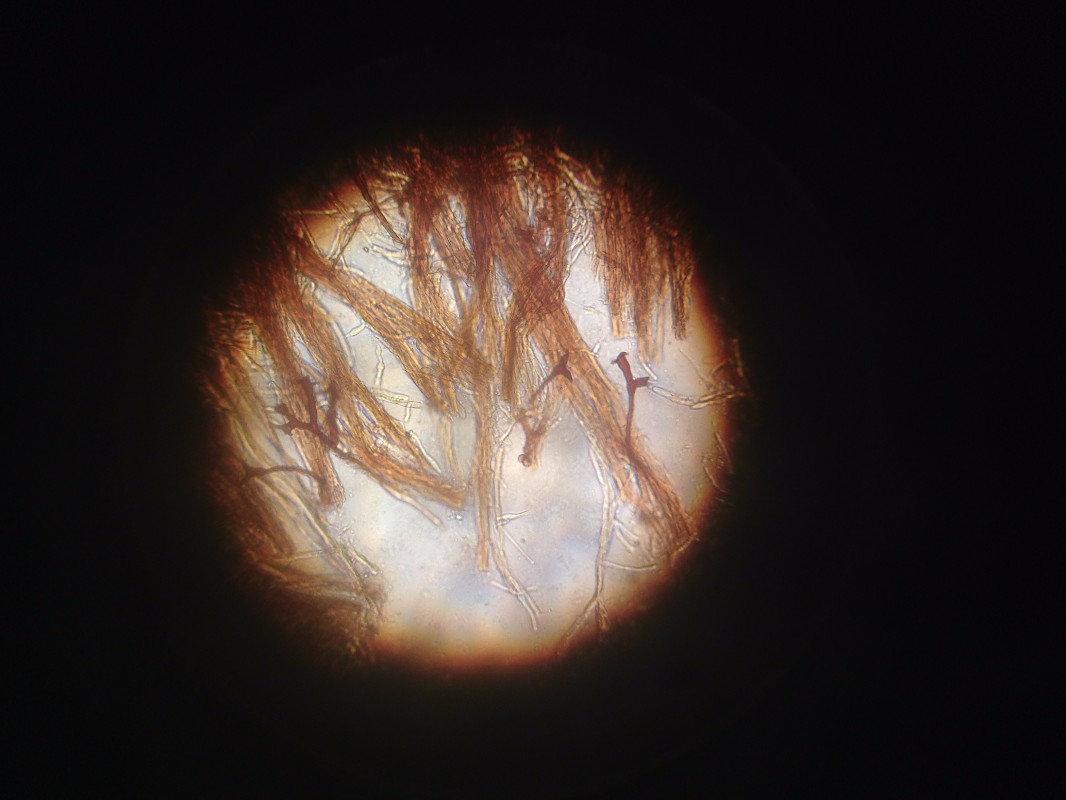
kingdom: Fungi
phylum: Basidiomycota
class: Agaricomycetes
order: Hymenochaetales
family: Hymenochaetaceae
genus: Inonotus
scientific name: Inonotus cuticularis
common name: kroghåret spejlporesvamp
